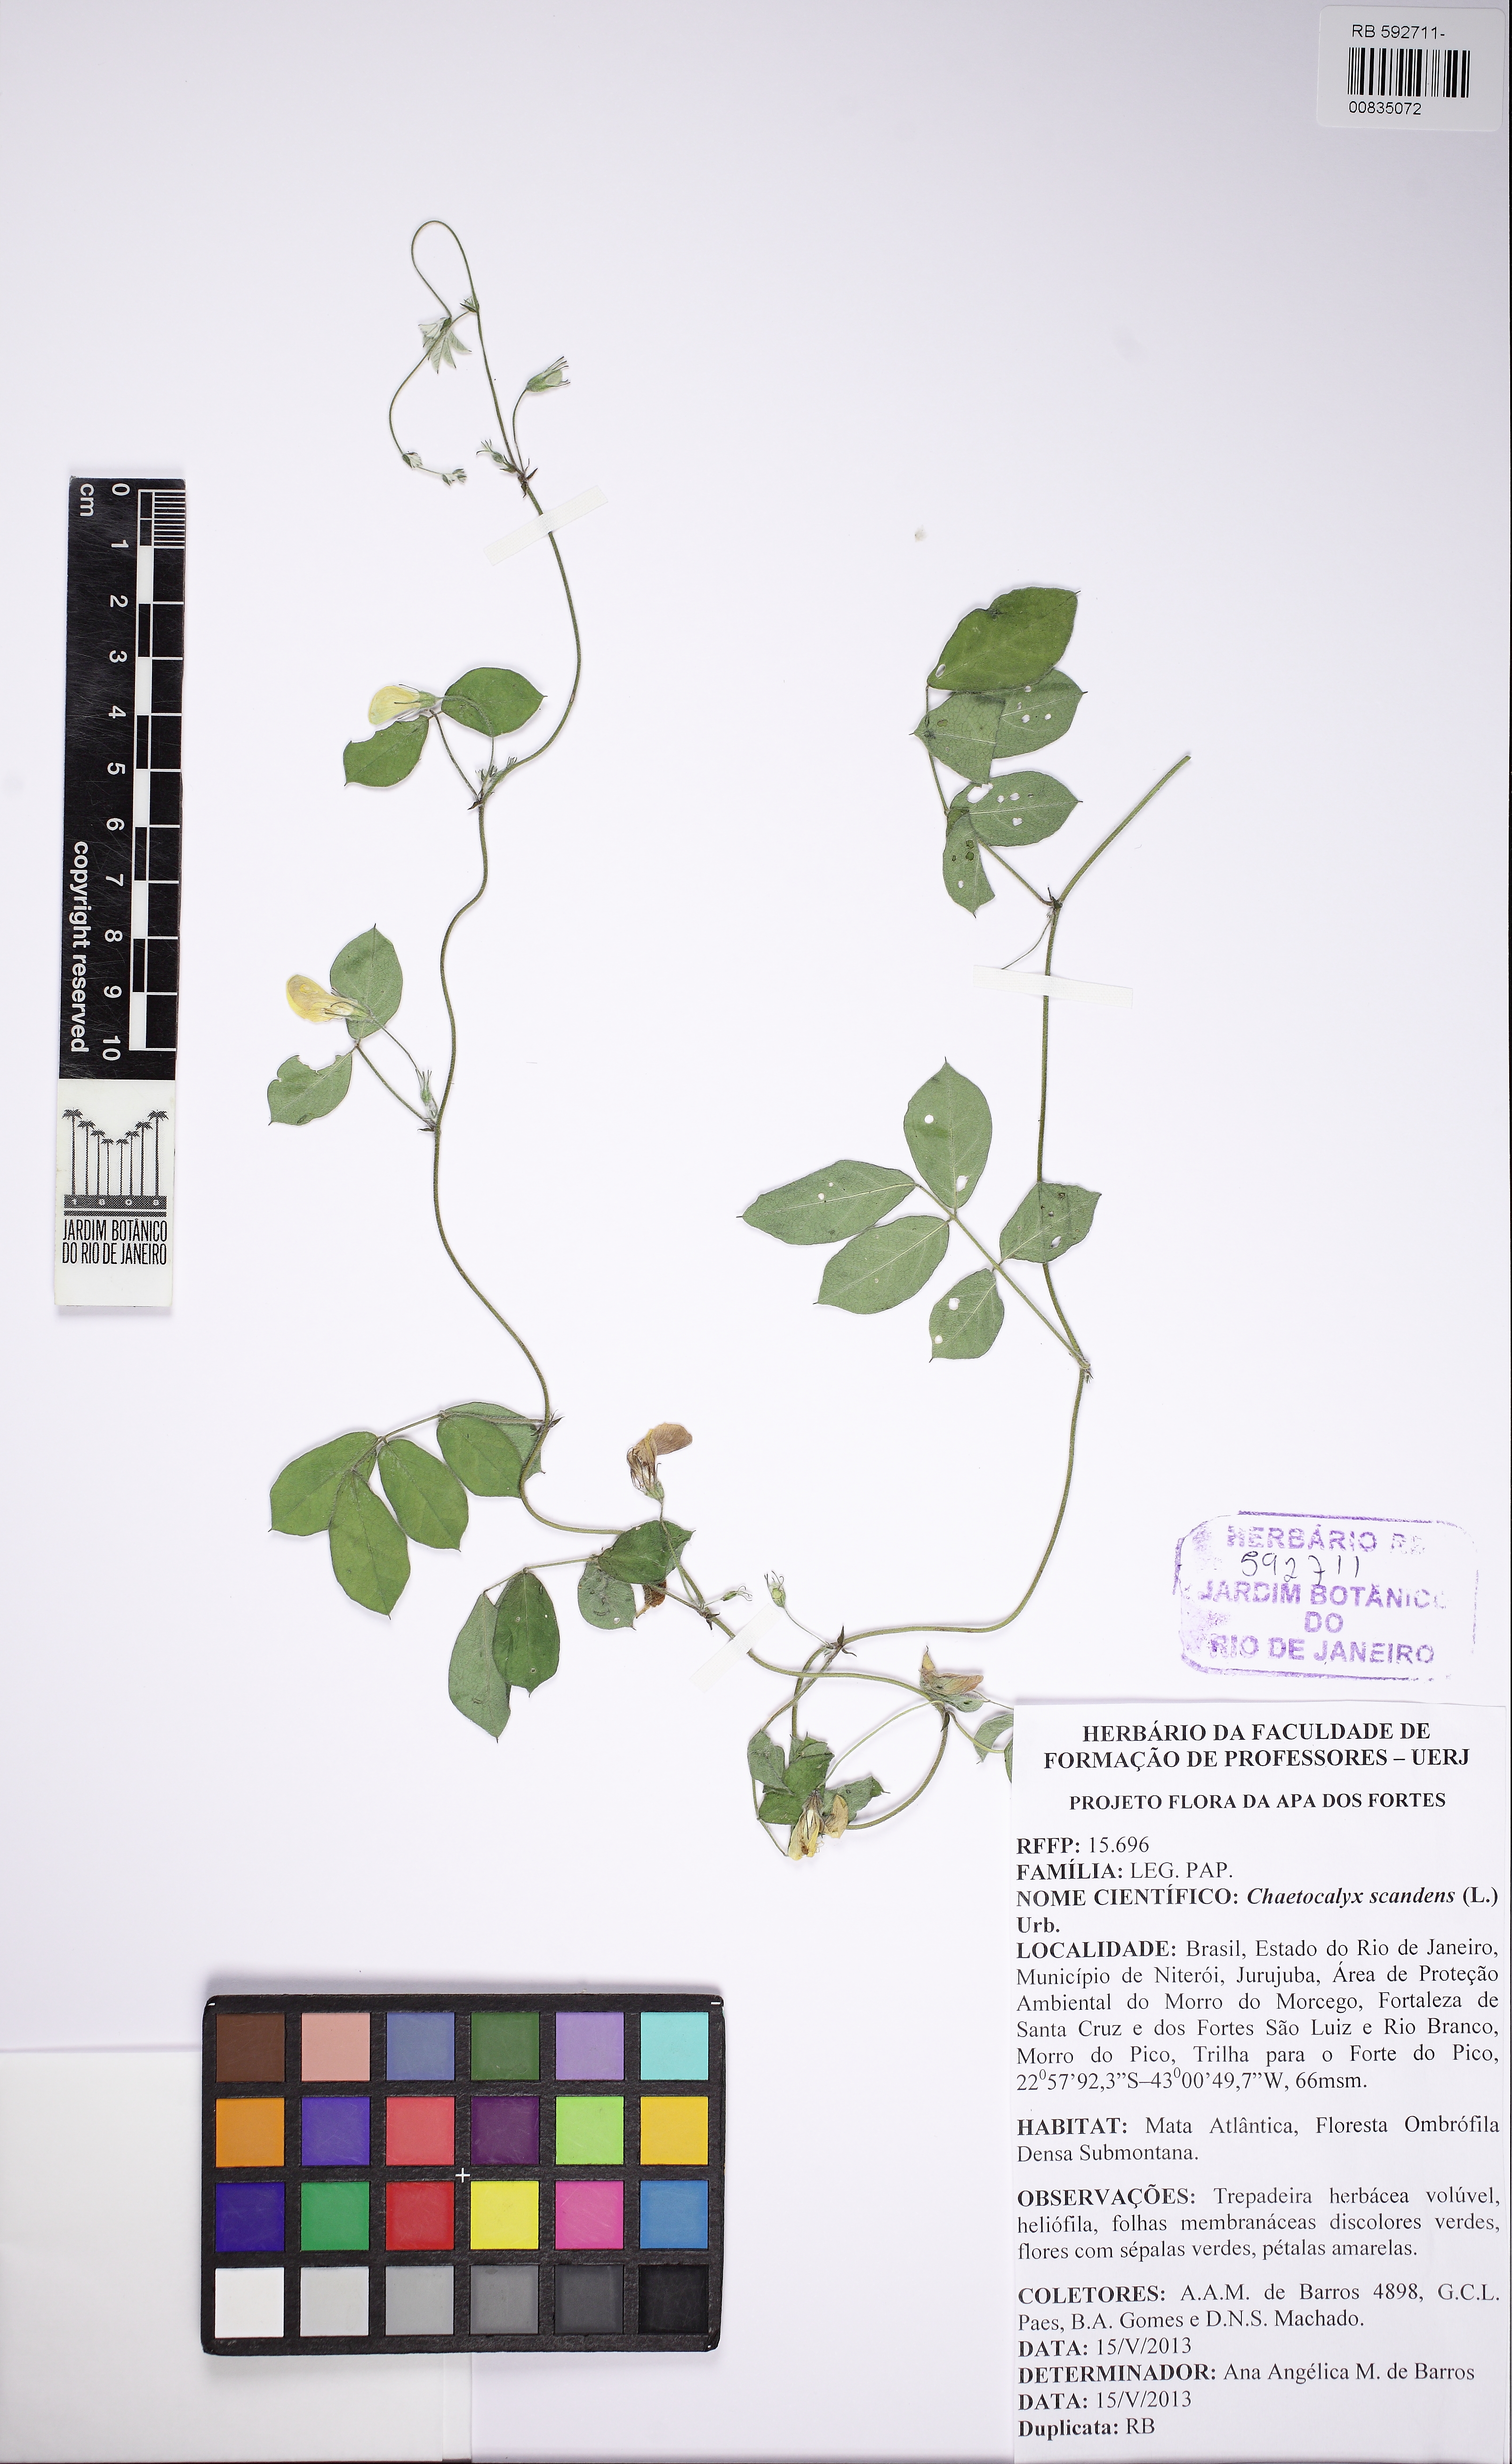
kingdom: Plantae
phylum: Tracheophyta
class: Magnoliopsida
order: Fabales
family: Fabaceae
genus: Nissolia
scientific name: Nissolia vincentina
